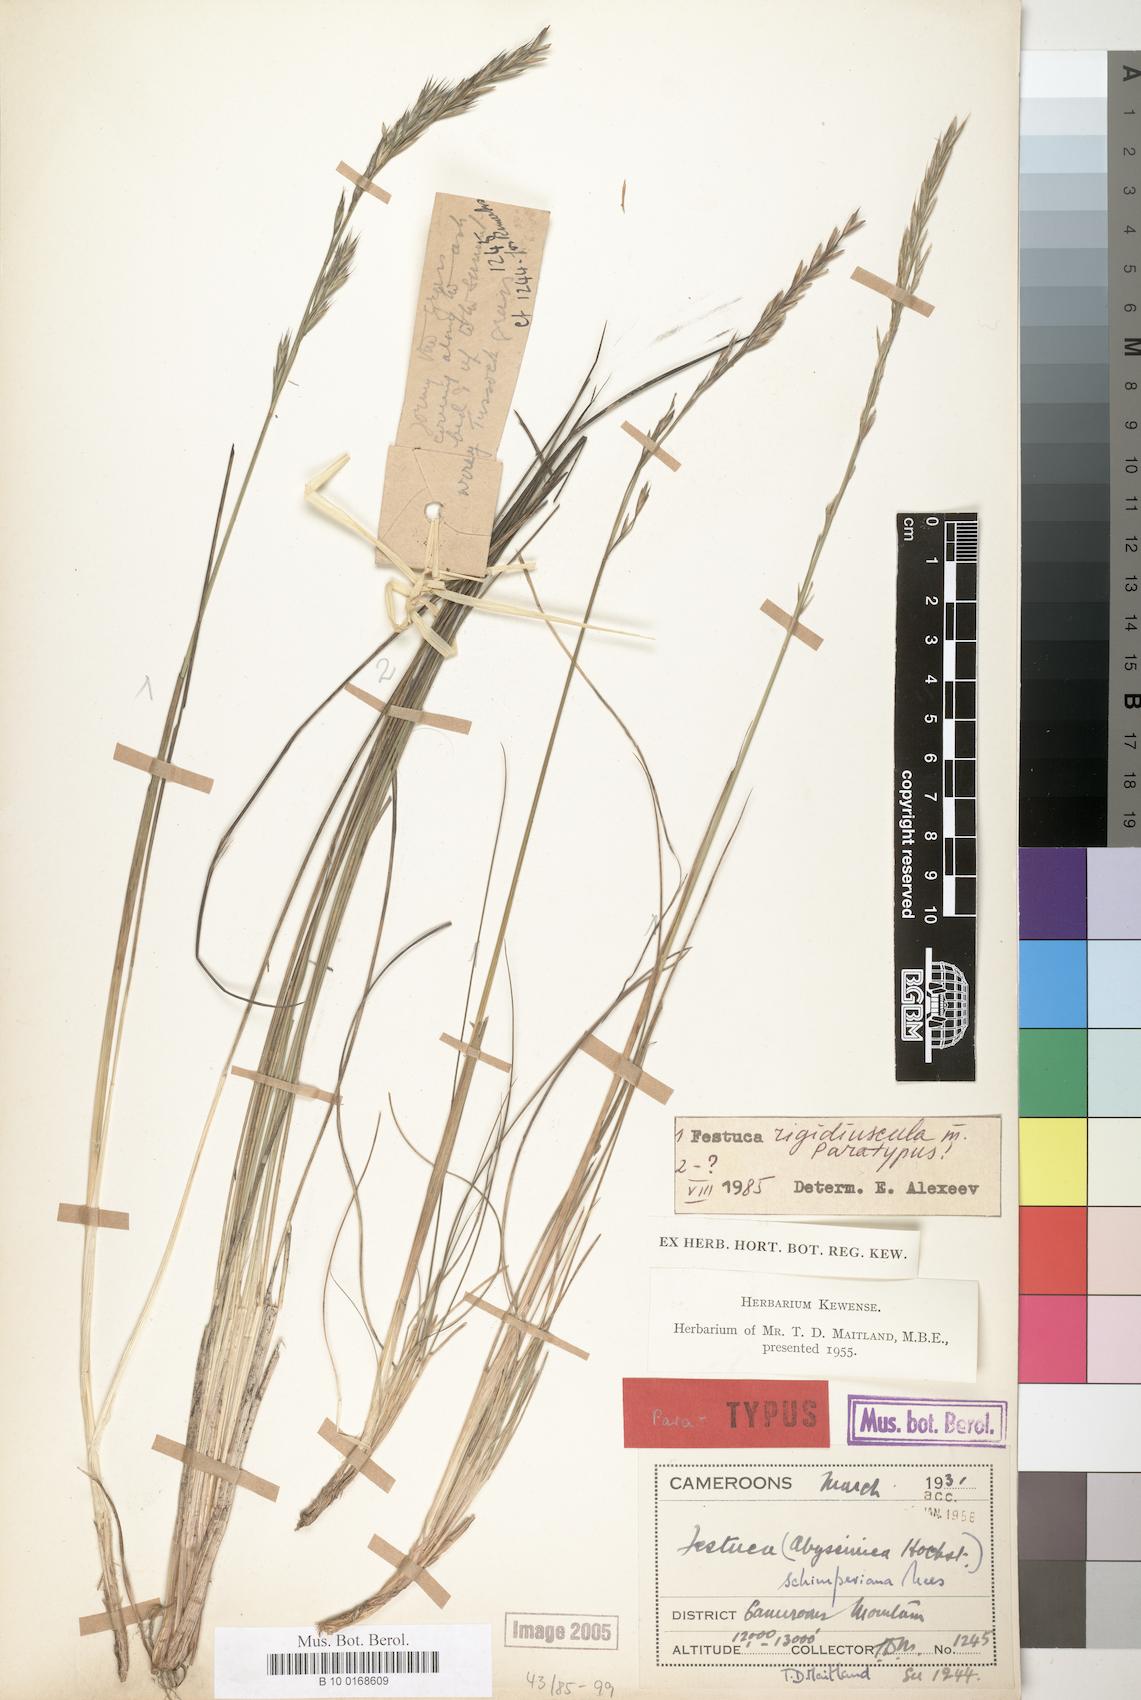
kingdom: Plantae
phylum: Tracheophyta
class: Liliopsida
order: Poales
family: Poaceae
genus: Festuca
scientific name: Festuca rigidiuscula
